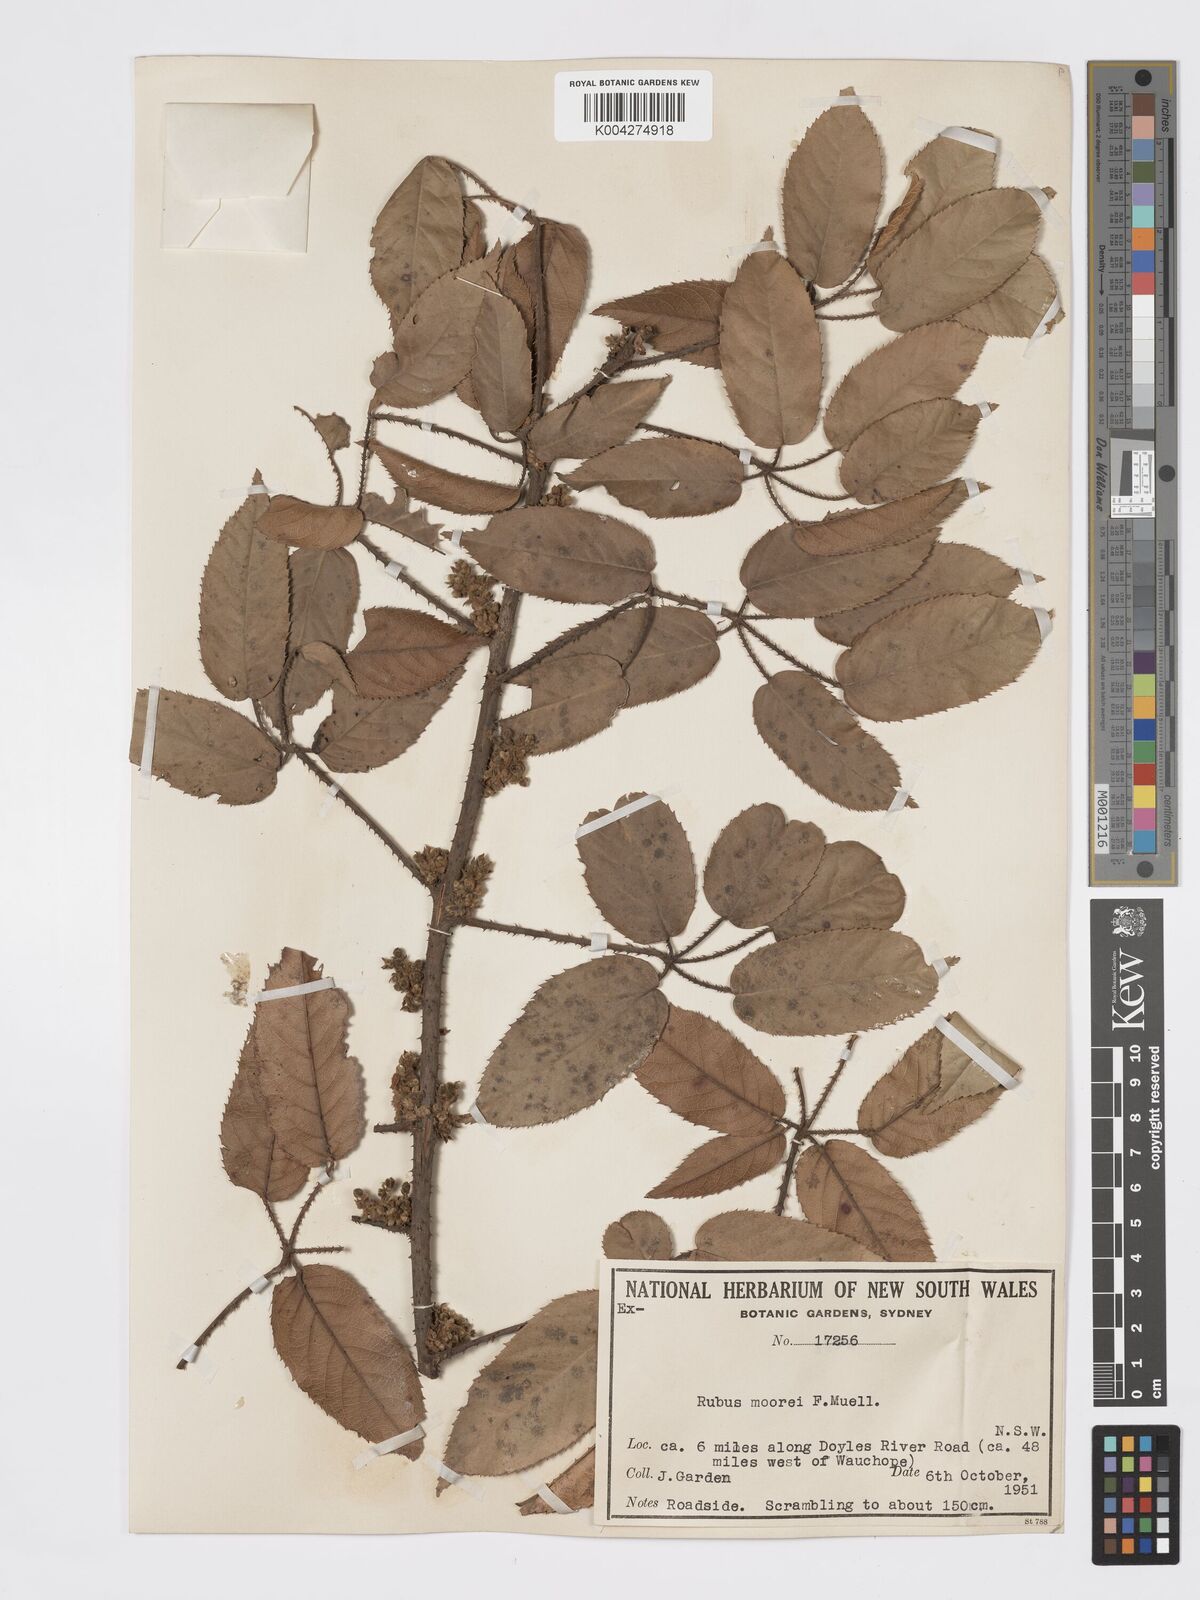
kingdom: Plantae
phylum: Tracheophyta
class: Magnoliopsida
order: Rosales
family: Rosaceae
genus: Rubus
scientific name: Rubus moorei
